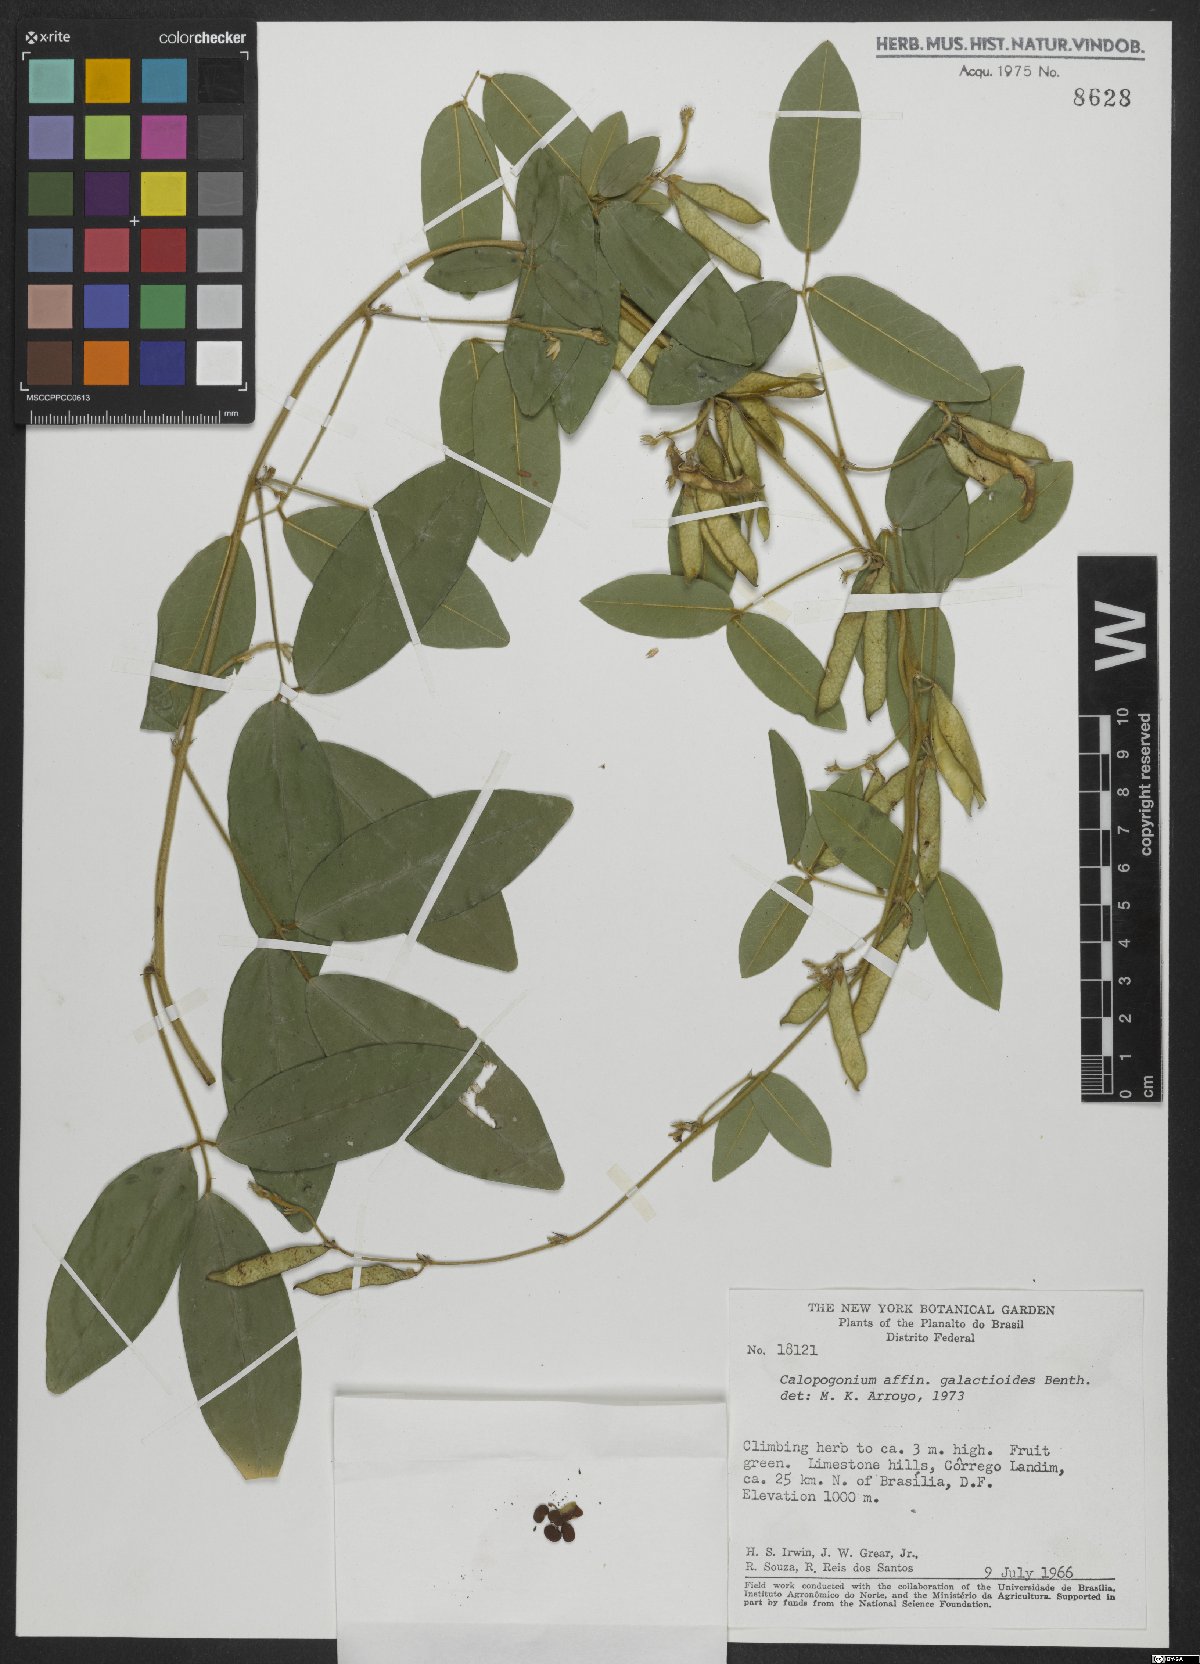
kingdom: Plantae
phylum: Tracheophyta
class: Magnoliopsida
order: Fabales
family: Fabaceae
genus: Calopogonium
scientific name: Calopogonium galactioides
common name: Legume
